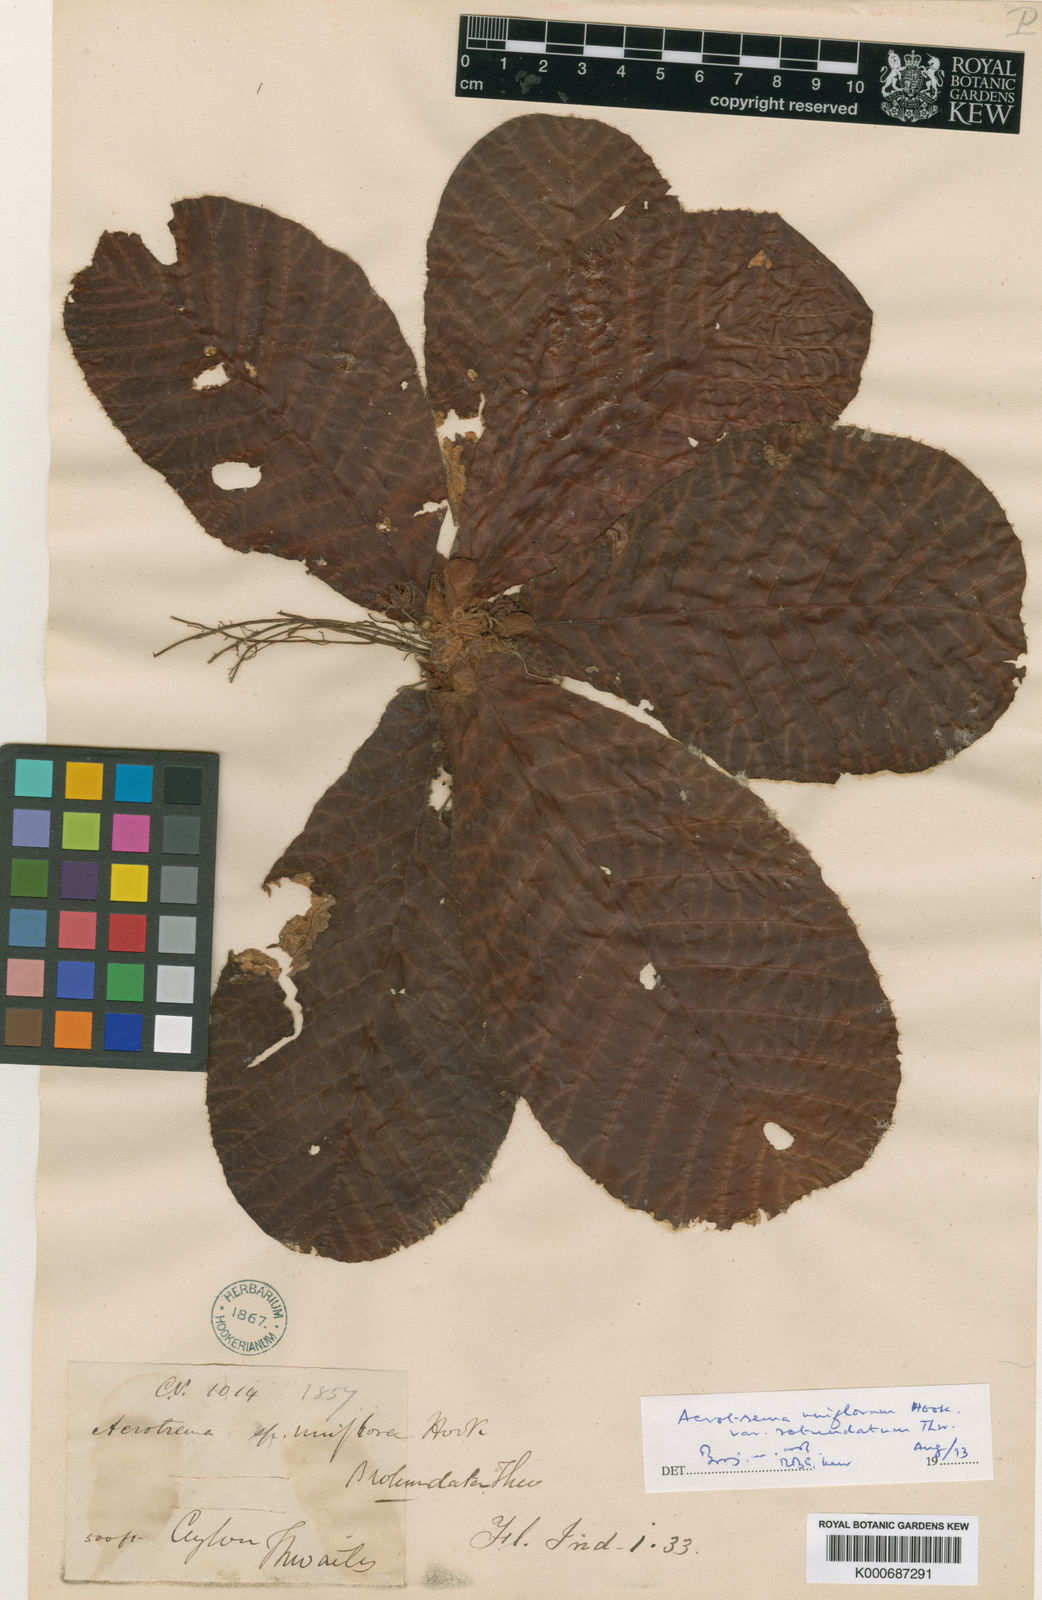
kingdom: Plantae
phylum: Tracheophyta
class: Magnoliopsida
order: Dilleniales
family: Dilleniaceae
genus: Acrotrema
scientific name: Acrotrema uniflorum
